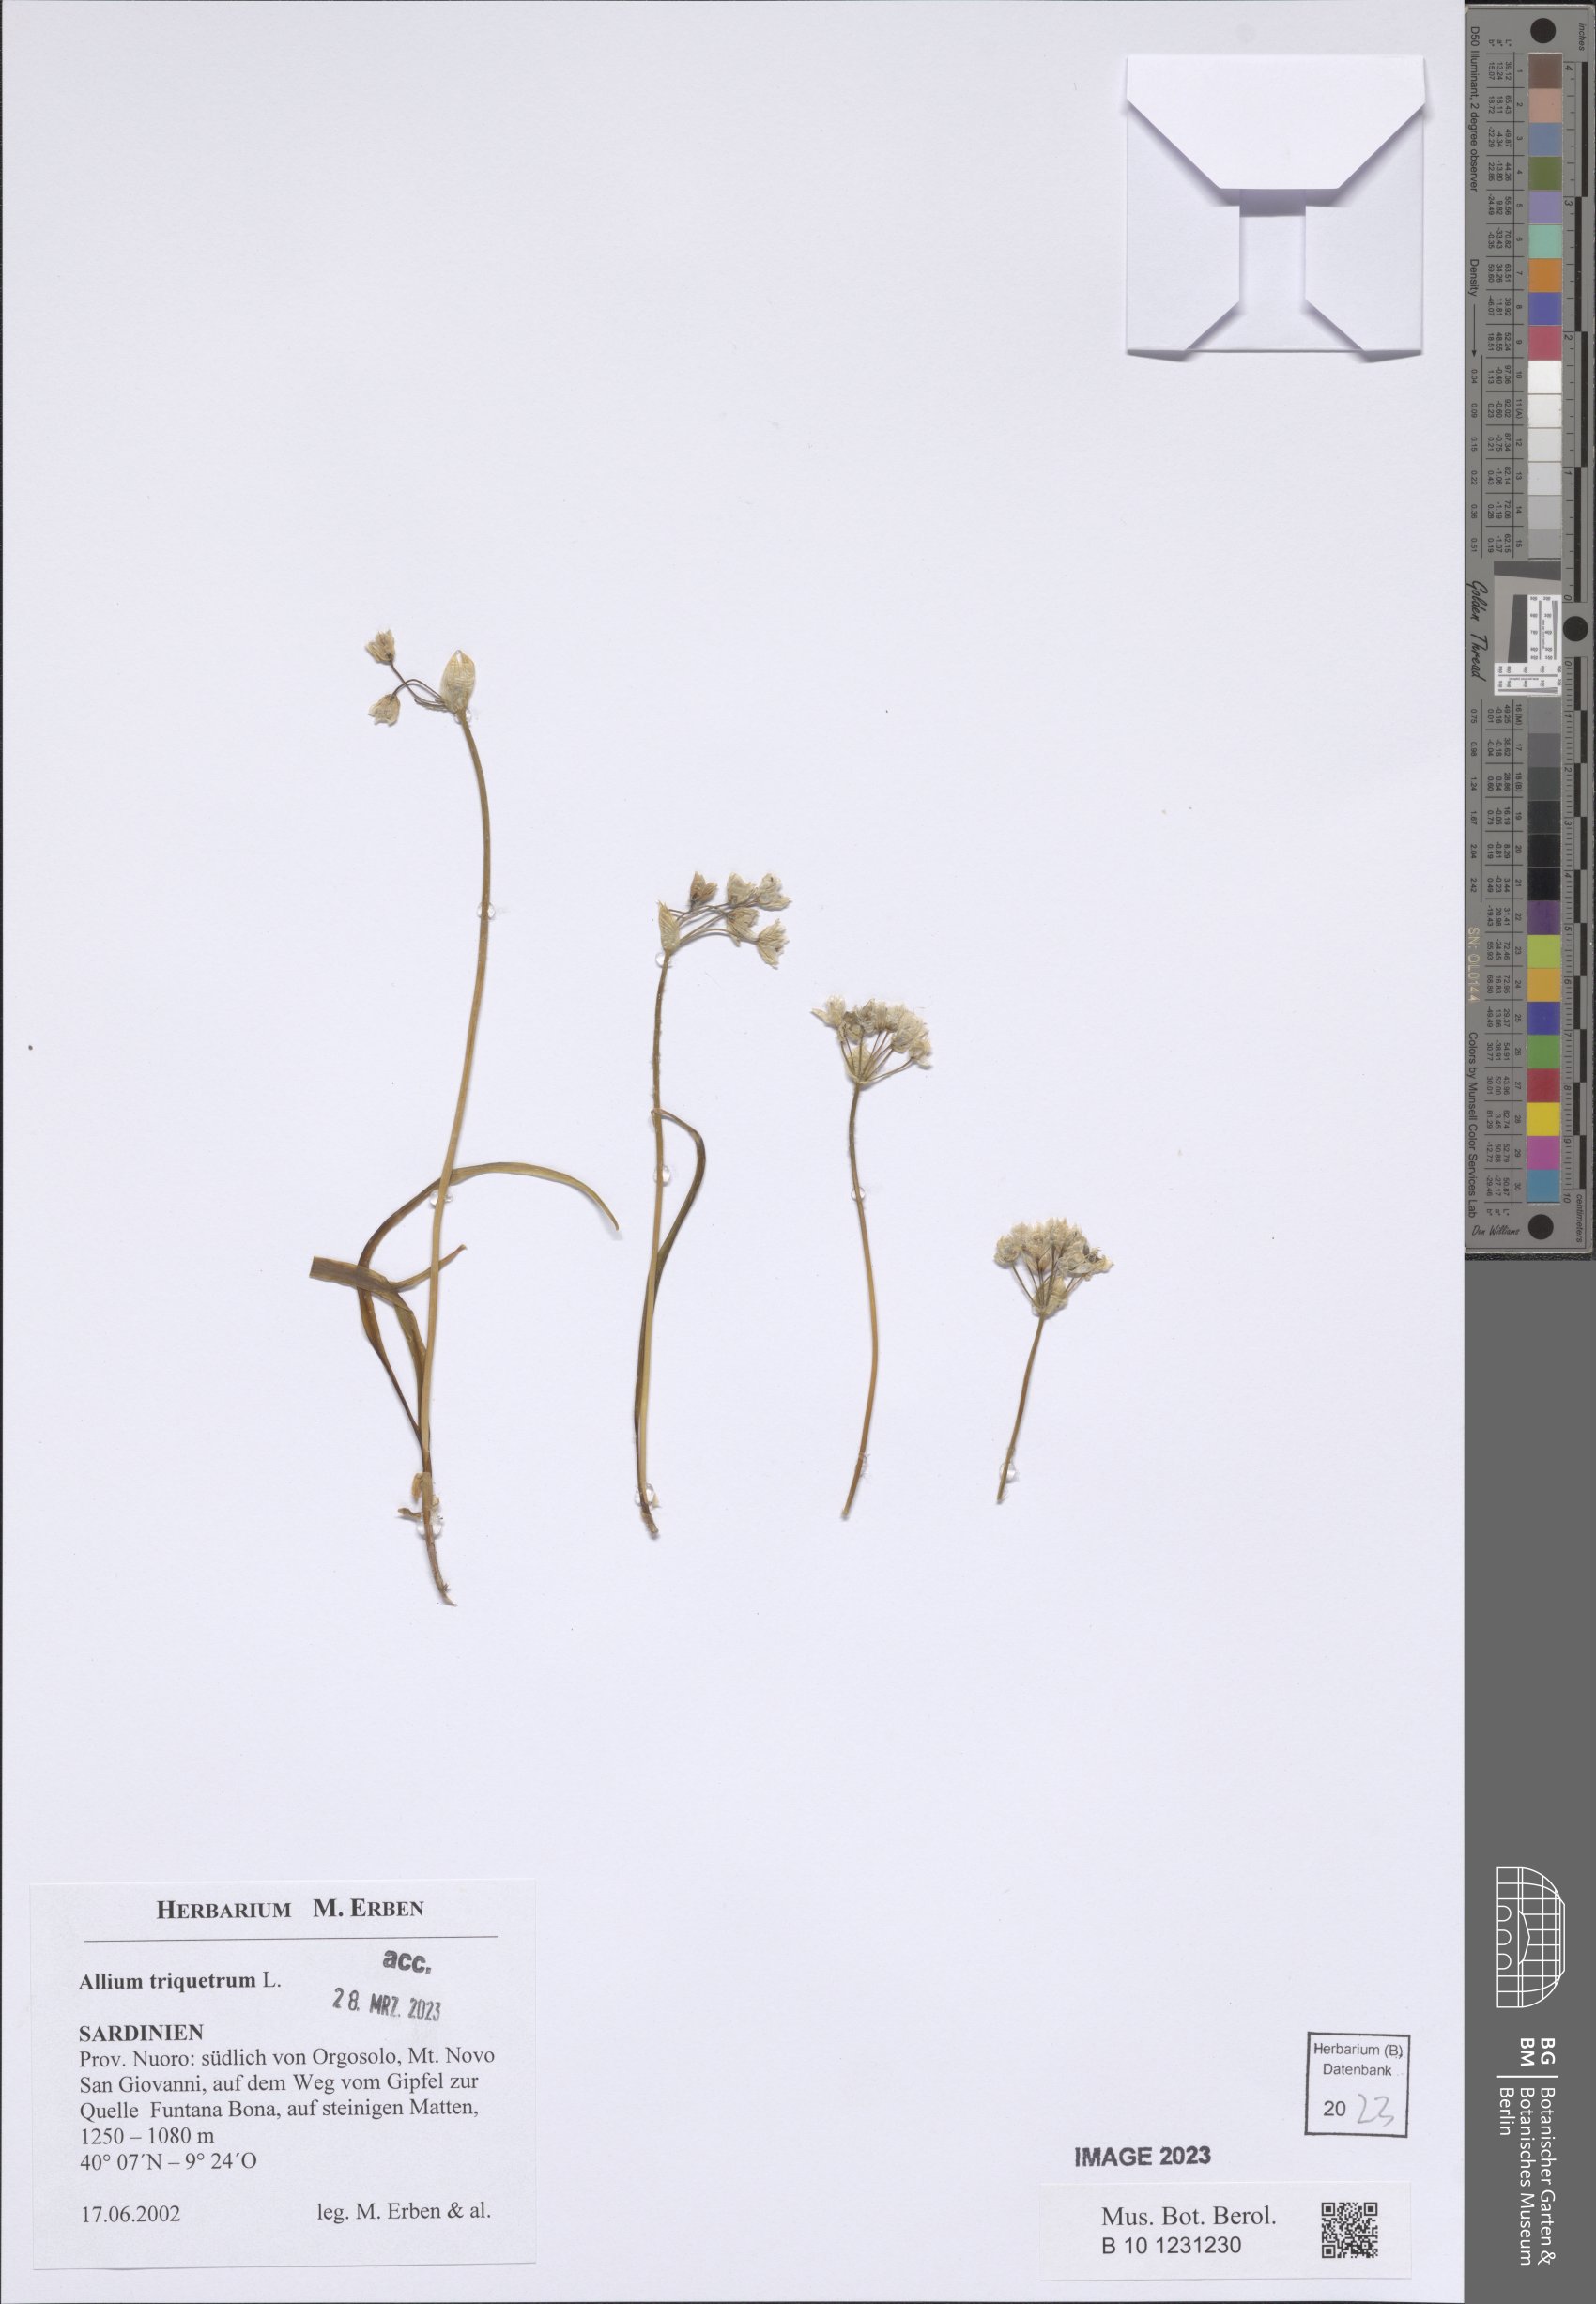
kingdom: Plantae
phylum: Tracheophyta
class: Liliopsida
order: Asparagales
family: Amaryllidaceae
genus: Allium
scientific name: Allium triquetrum
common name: Three-cornered garlic
